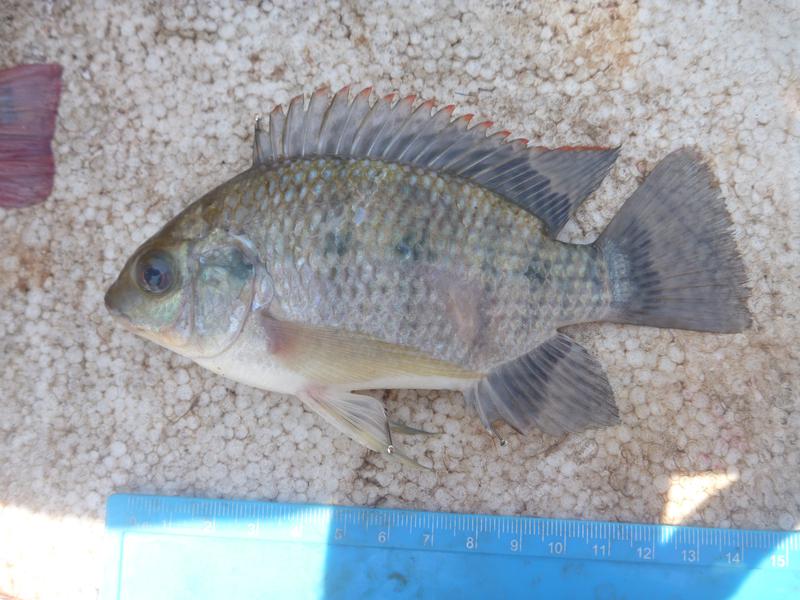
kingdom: Animalia
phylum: Chordata
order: Perciformes
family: Cichlidae
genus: Oreochromis
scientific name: Oreochromis upembae
